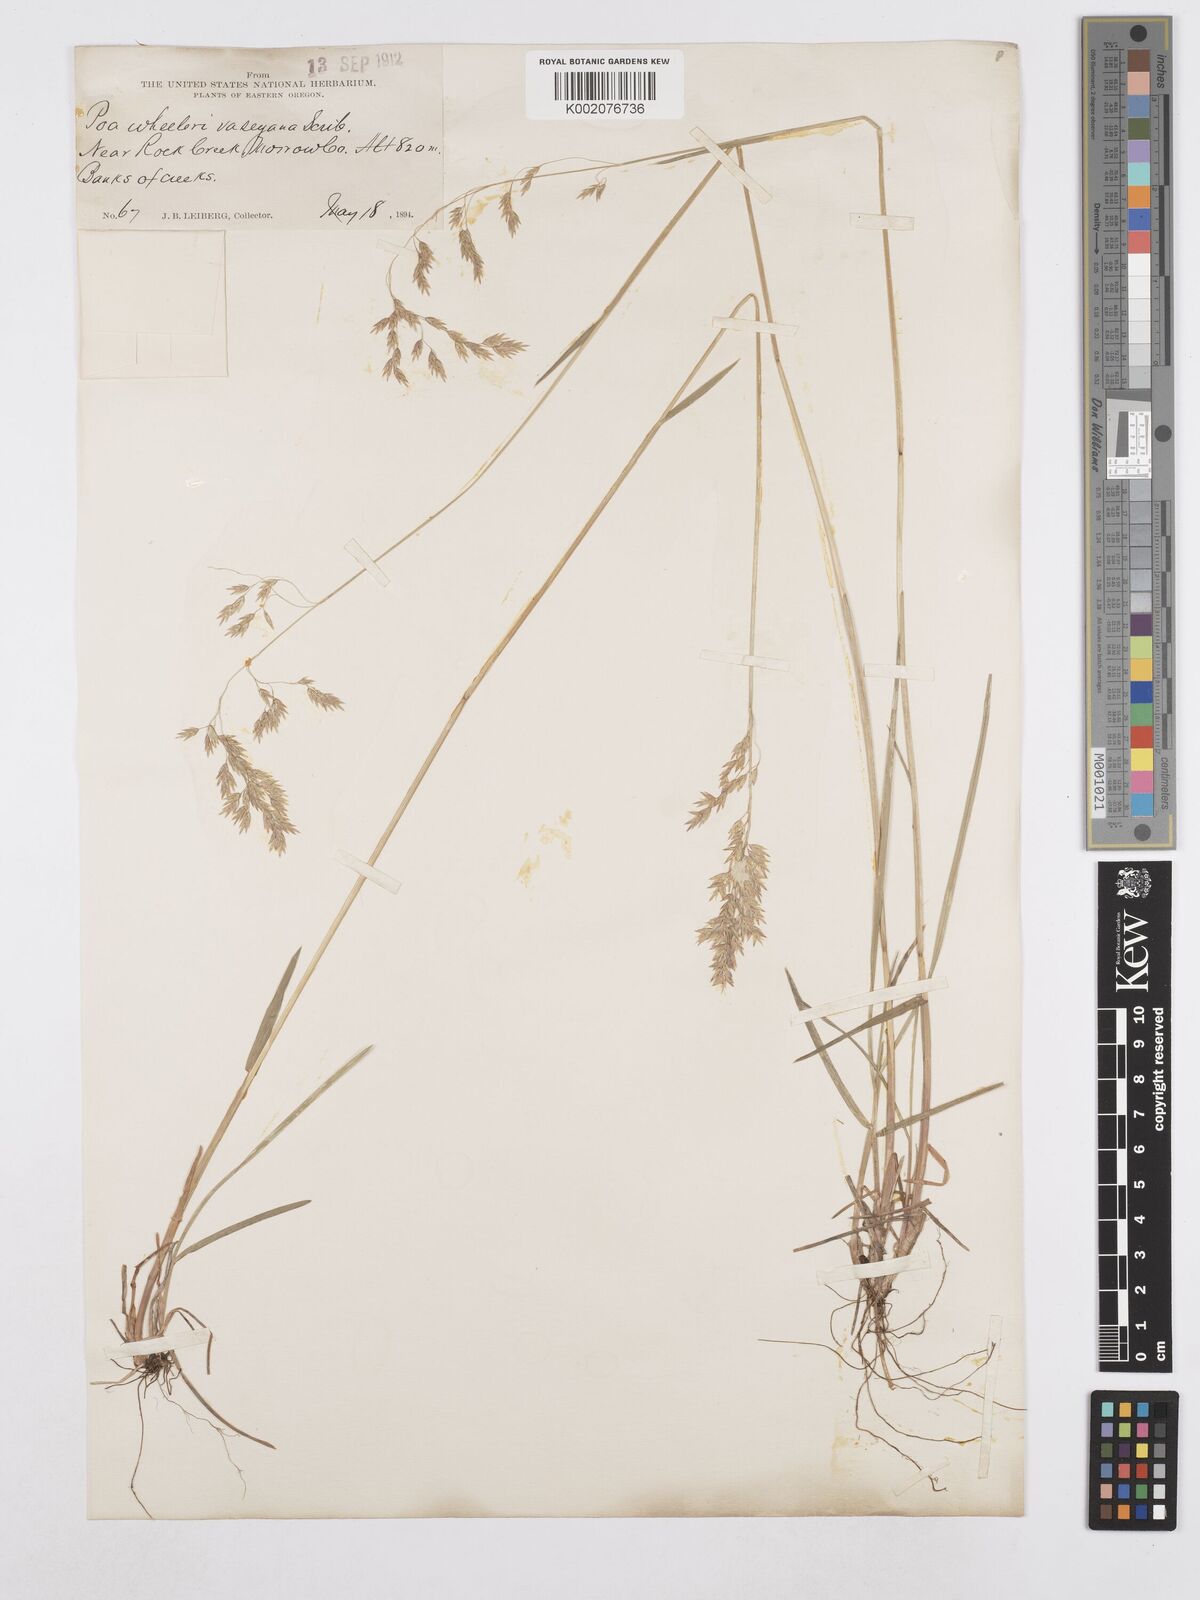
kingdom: Plantae
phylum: Tracheophyta
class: Liliopsida
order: Poales
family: Poaceae
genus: Poa
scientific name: Poa wheeleri
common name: Wheeler's bluegrass
